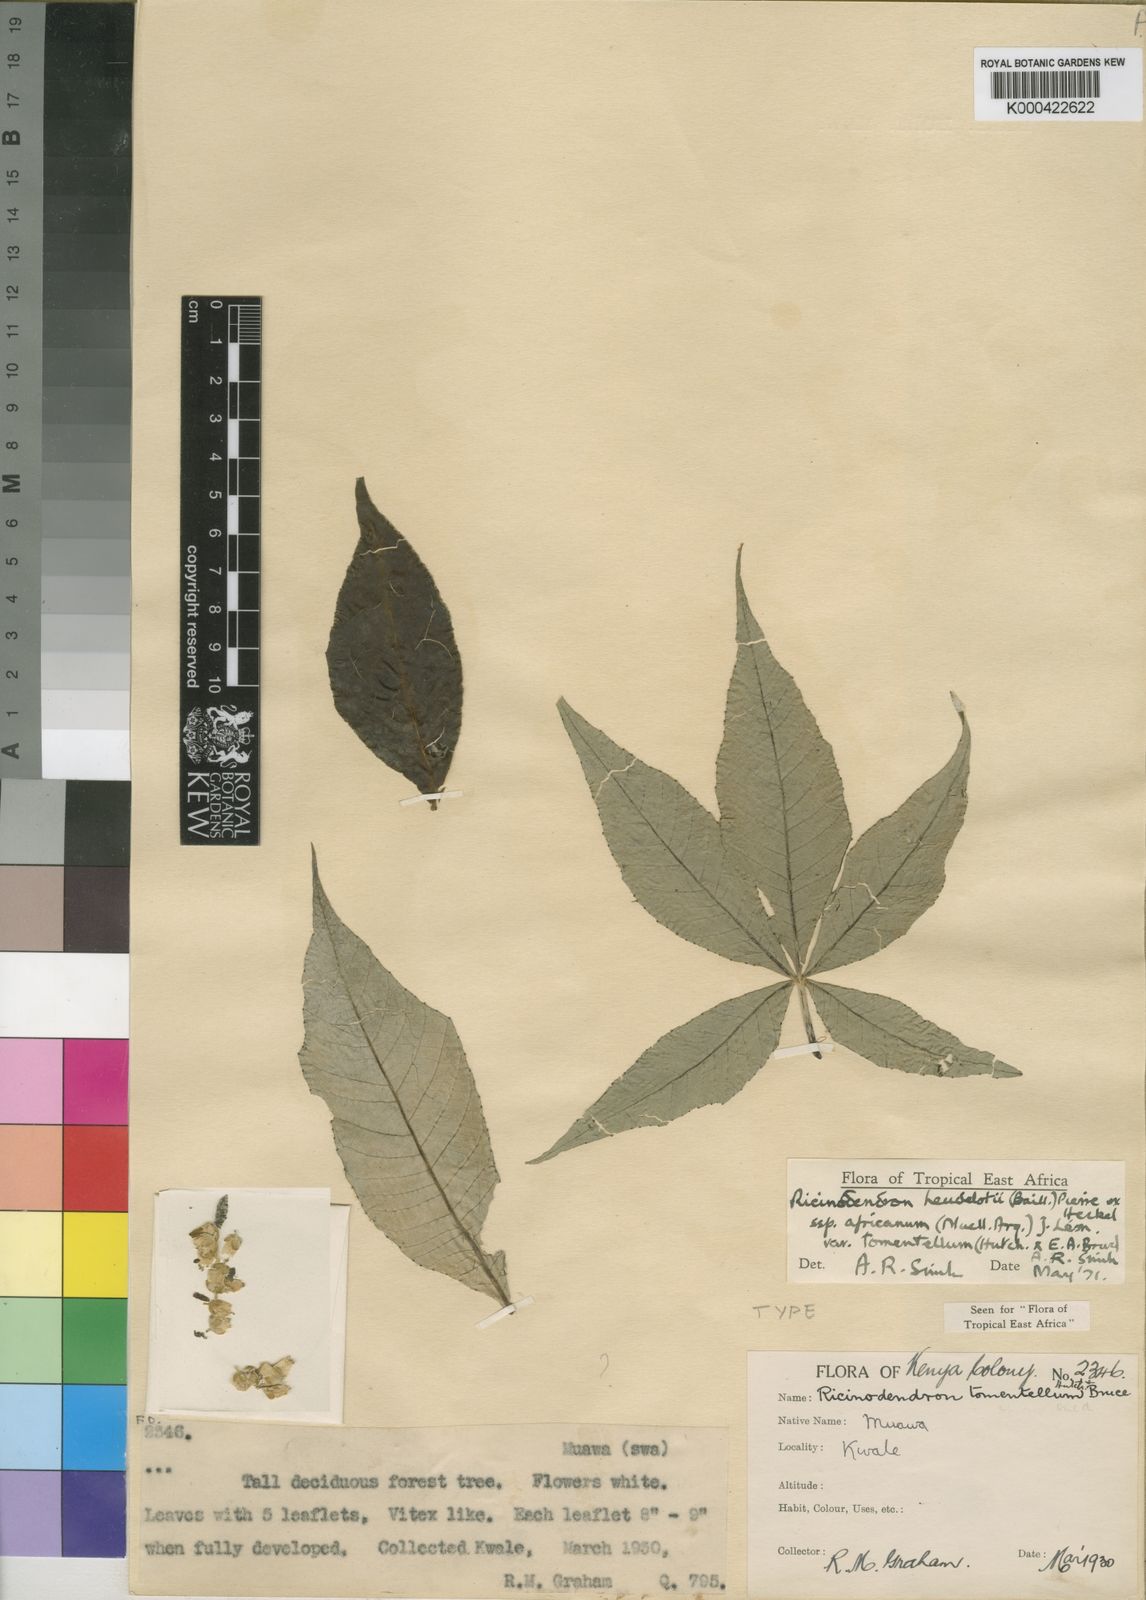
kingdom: Plantae
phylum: Tracheophyta
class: Magnoliopsida
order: Malpighiales
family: Euphorbiaceae
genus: Ricinodendron
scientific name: Ricinodendron heudelotii
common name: African nut-tree
